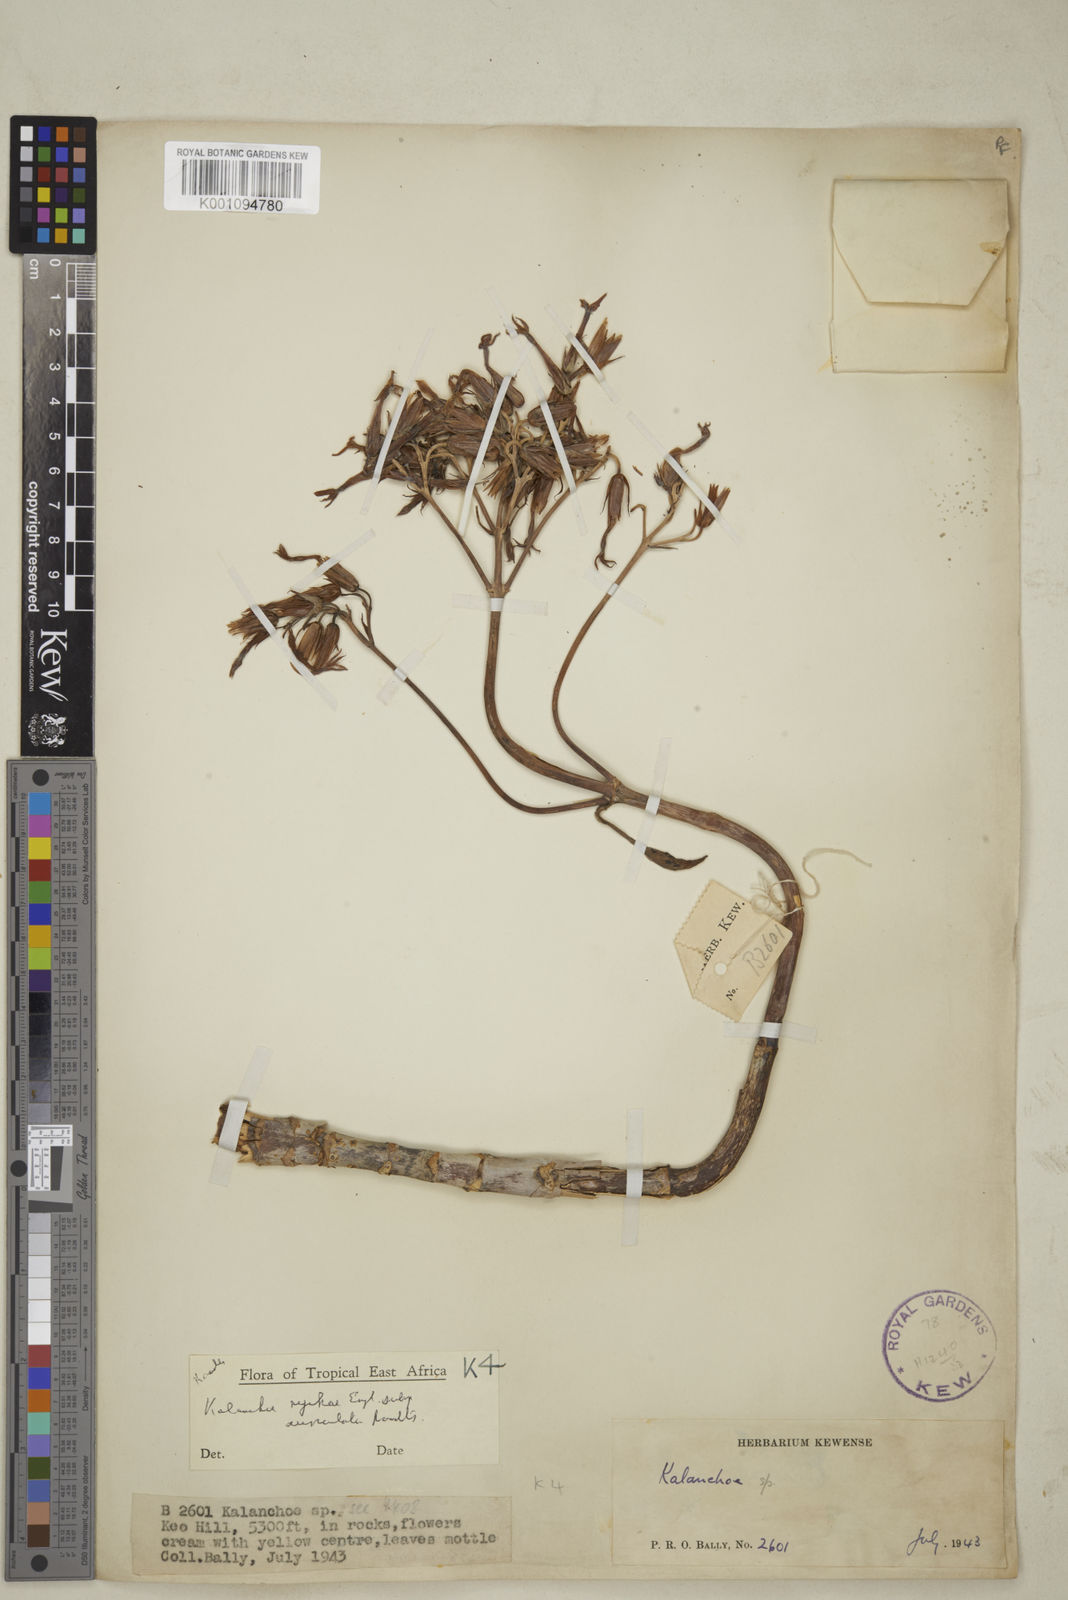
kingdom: Plantae
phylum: Tracheophyta
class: Magnoliopsida
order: Saxifragales
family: Crassulaceae
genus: Kalanchoe
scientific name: Kalanchoe nyikae
